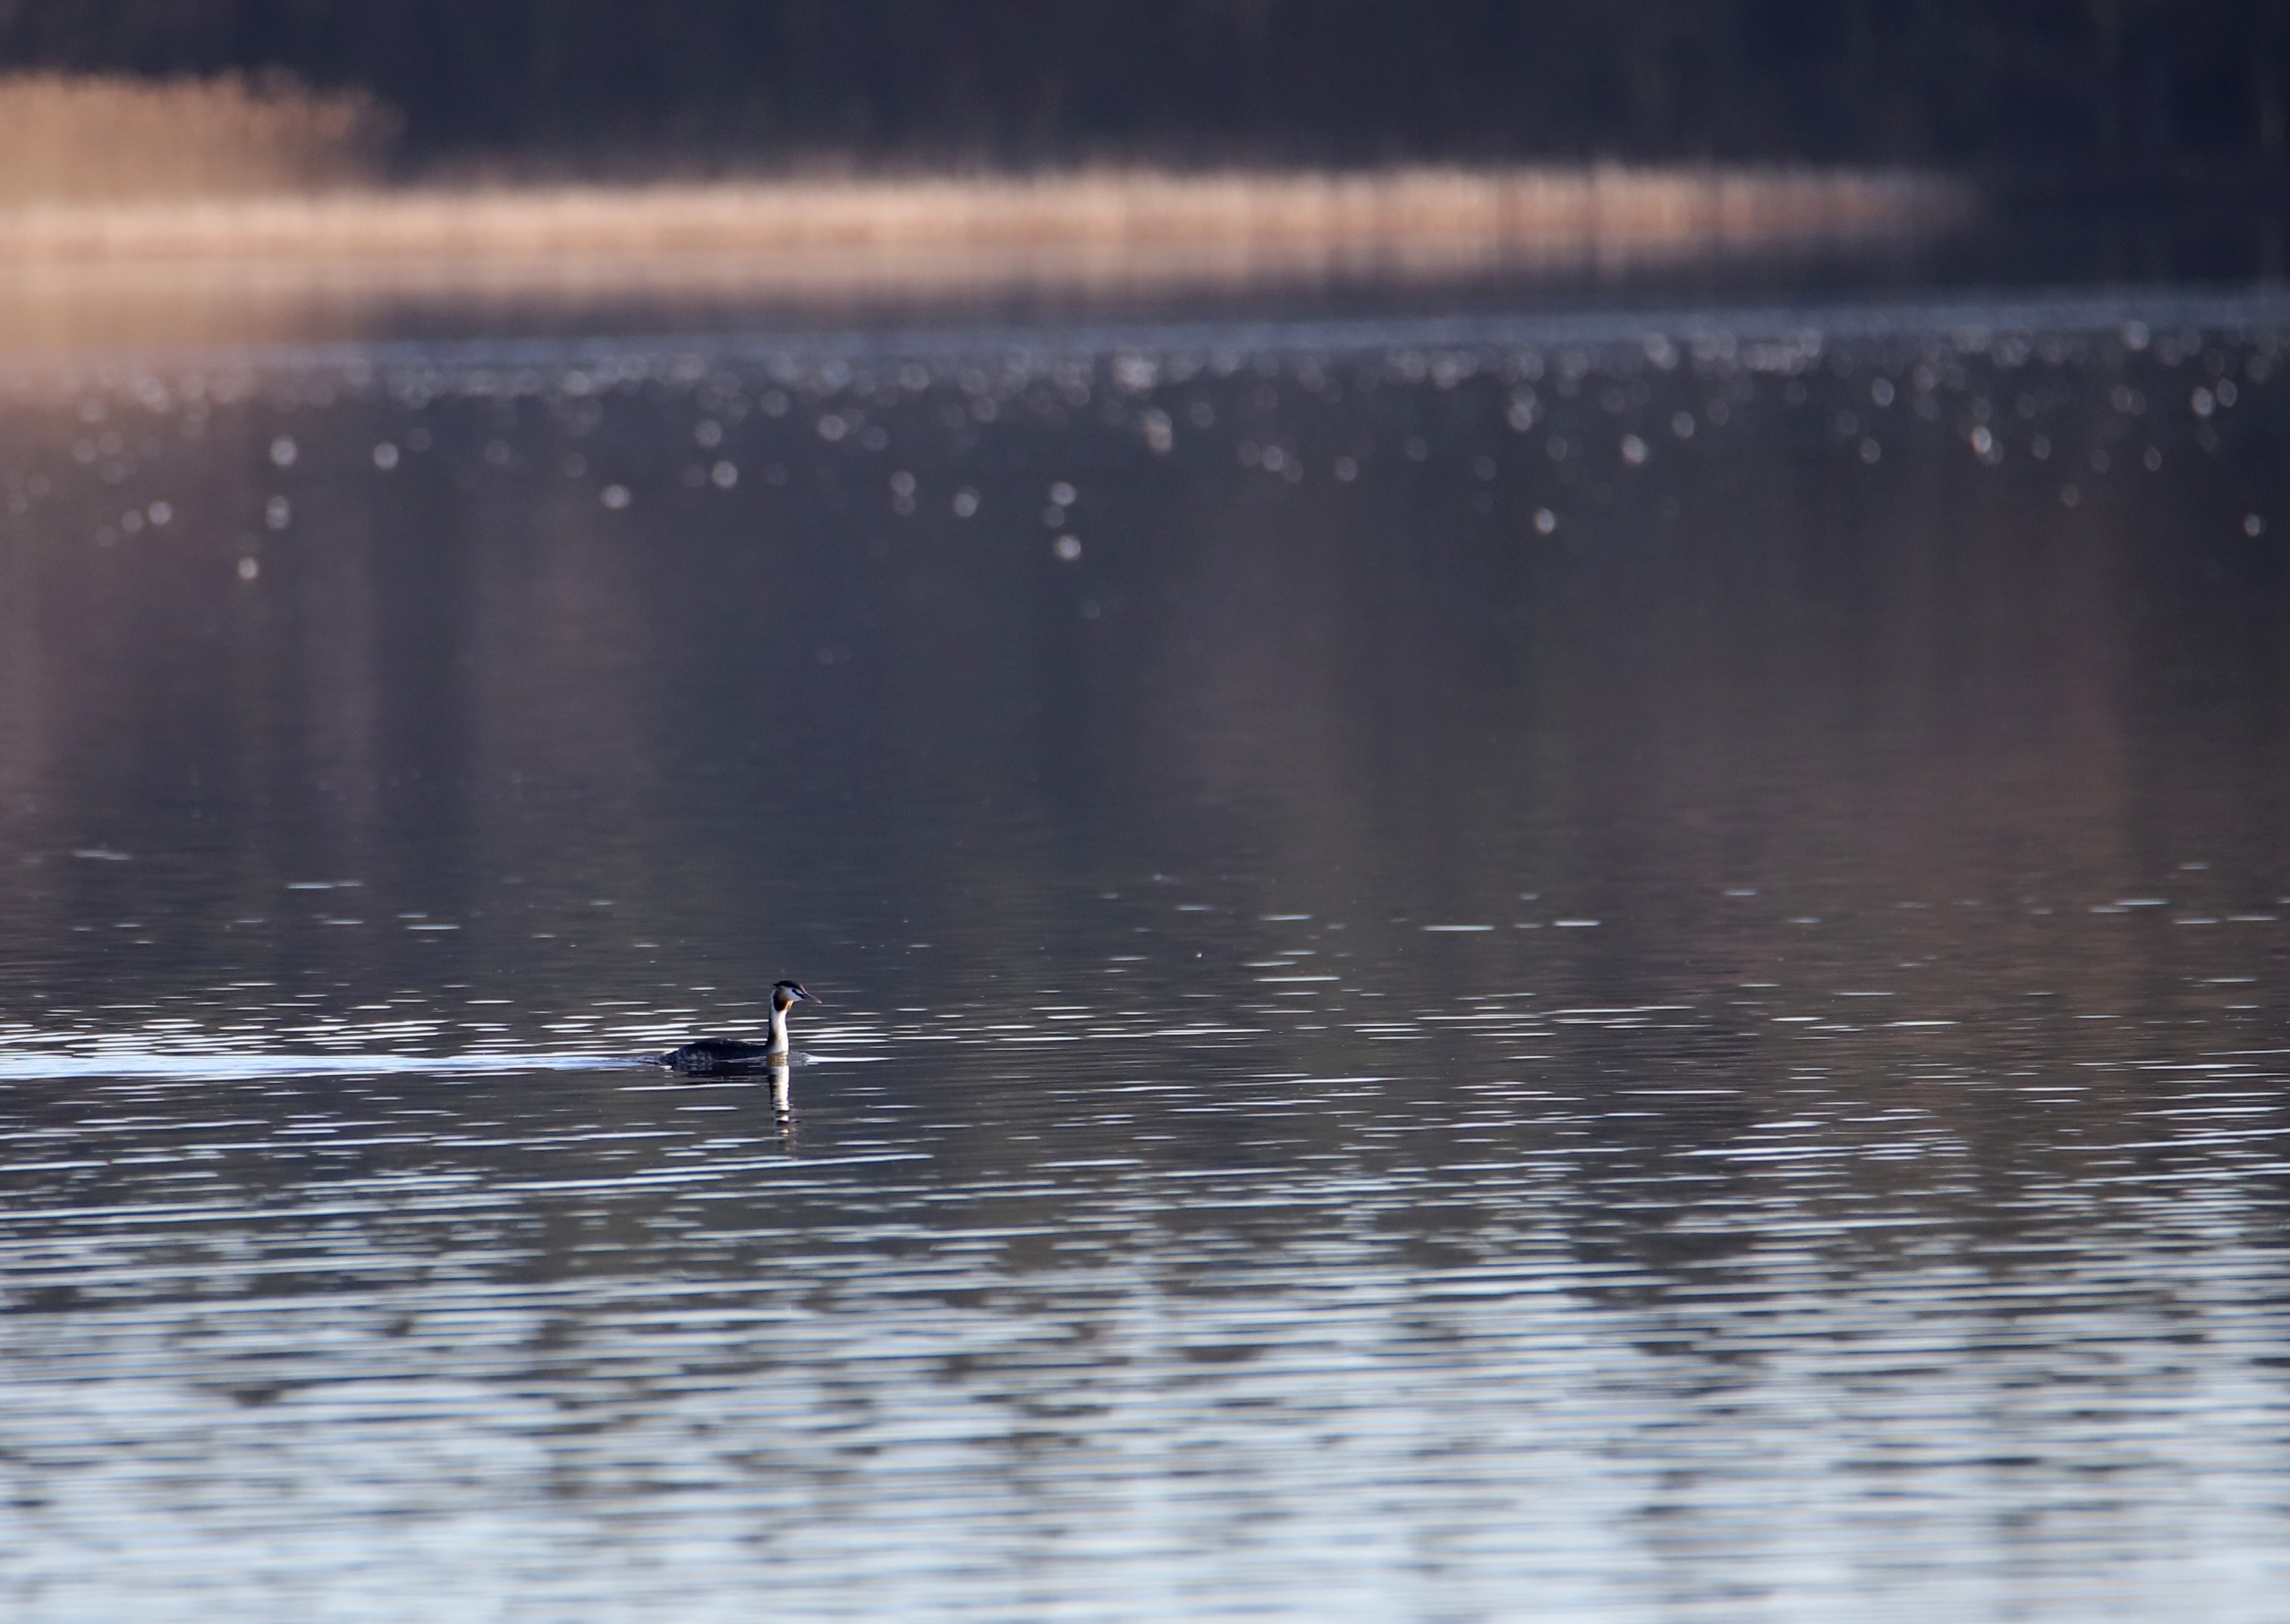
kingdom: Animalia
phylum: Chordata
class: Aves
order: Podicipediformes
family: Podicipedidae
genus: Podiceps
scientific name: Podiceps cristatus
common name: Toppet lappedykker
